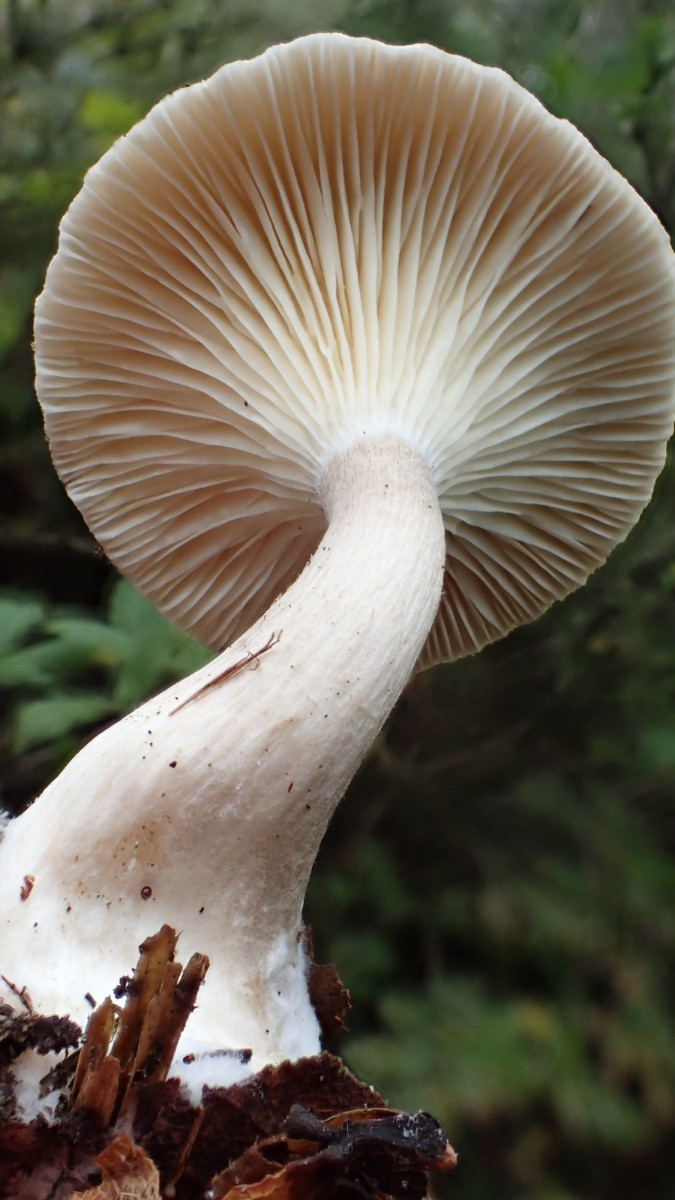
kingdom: Fungi
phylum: Basidiomycota
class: Agaricomycetes
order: Agaricales
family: Hygrophoraceae
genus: Ampulloclitocybe
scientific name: Ampulloclitocybe clavipes
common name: køllefod
